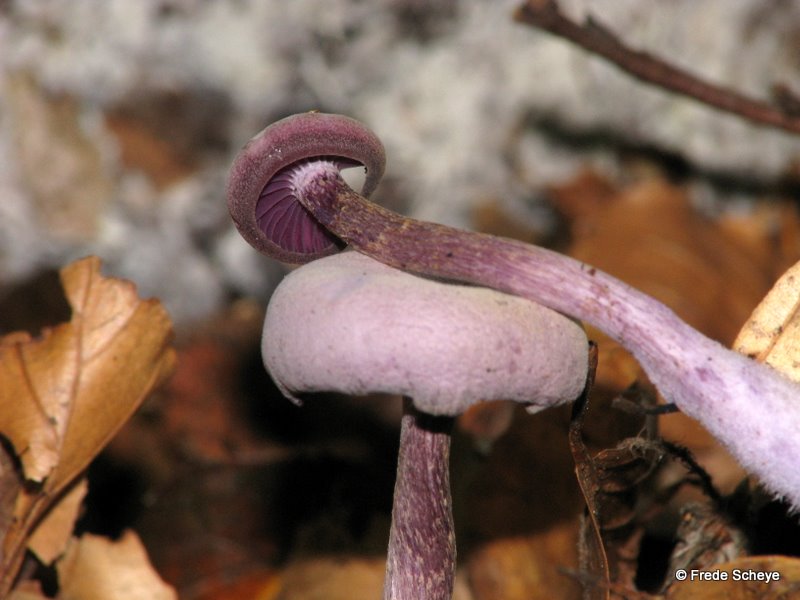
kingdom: Fungi
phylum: Basidiomycota
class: Agaricomycetes
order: Agaricales
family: Hydnangiaceae
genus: Laccaria
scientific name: Laccaria amethystina
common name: violet ametysthat
